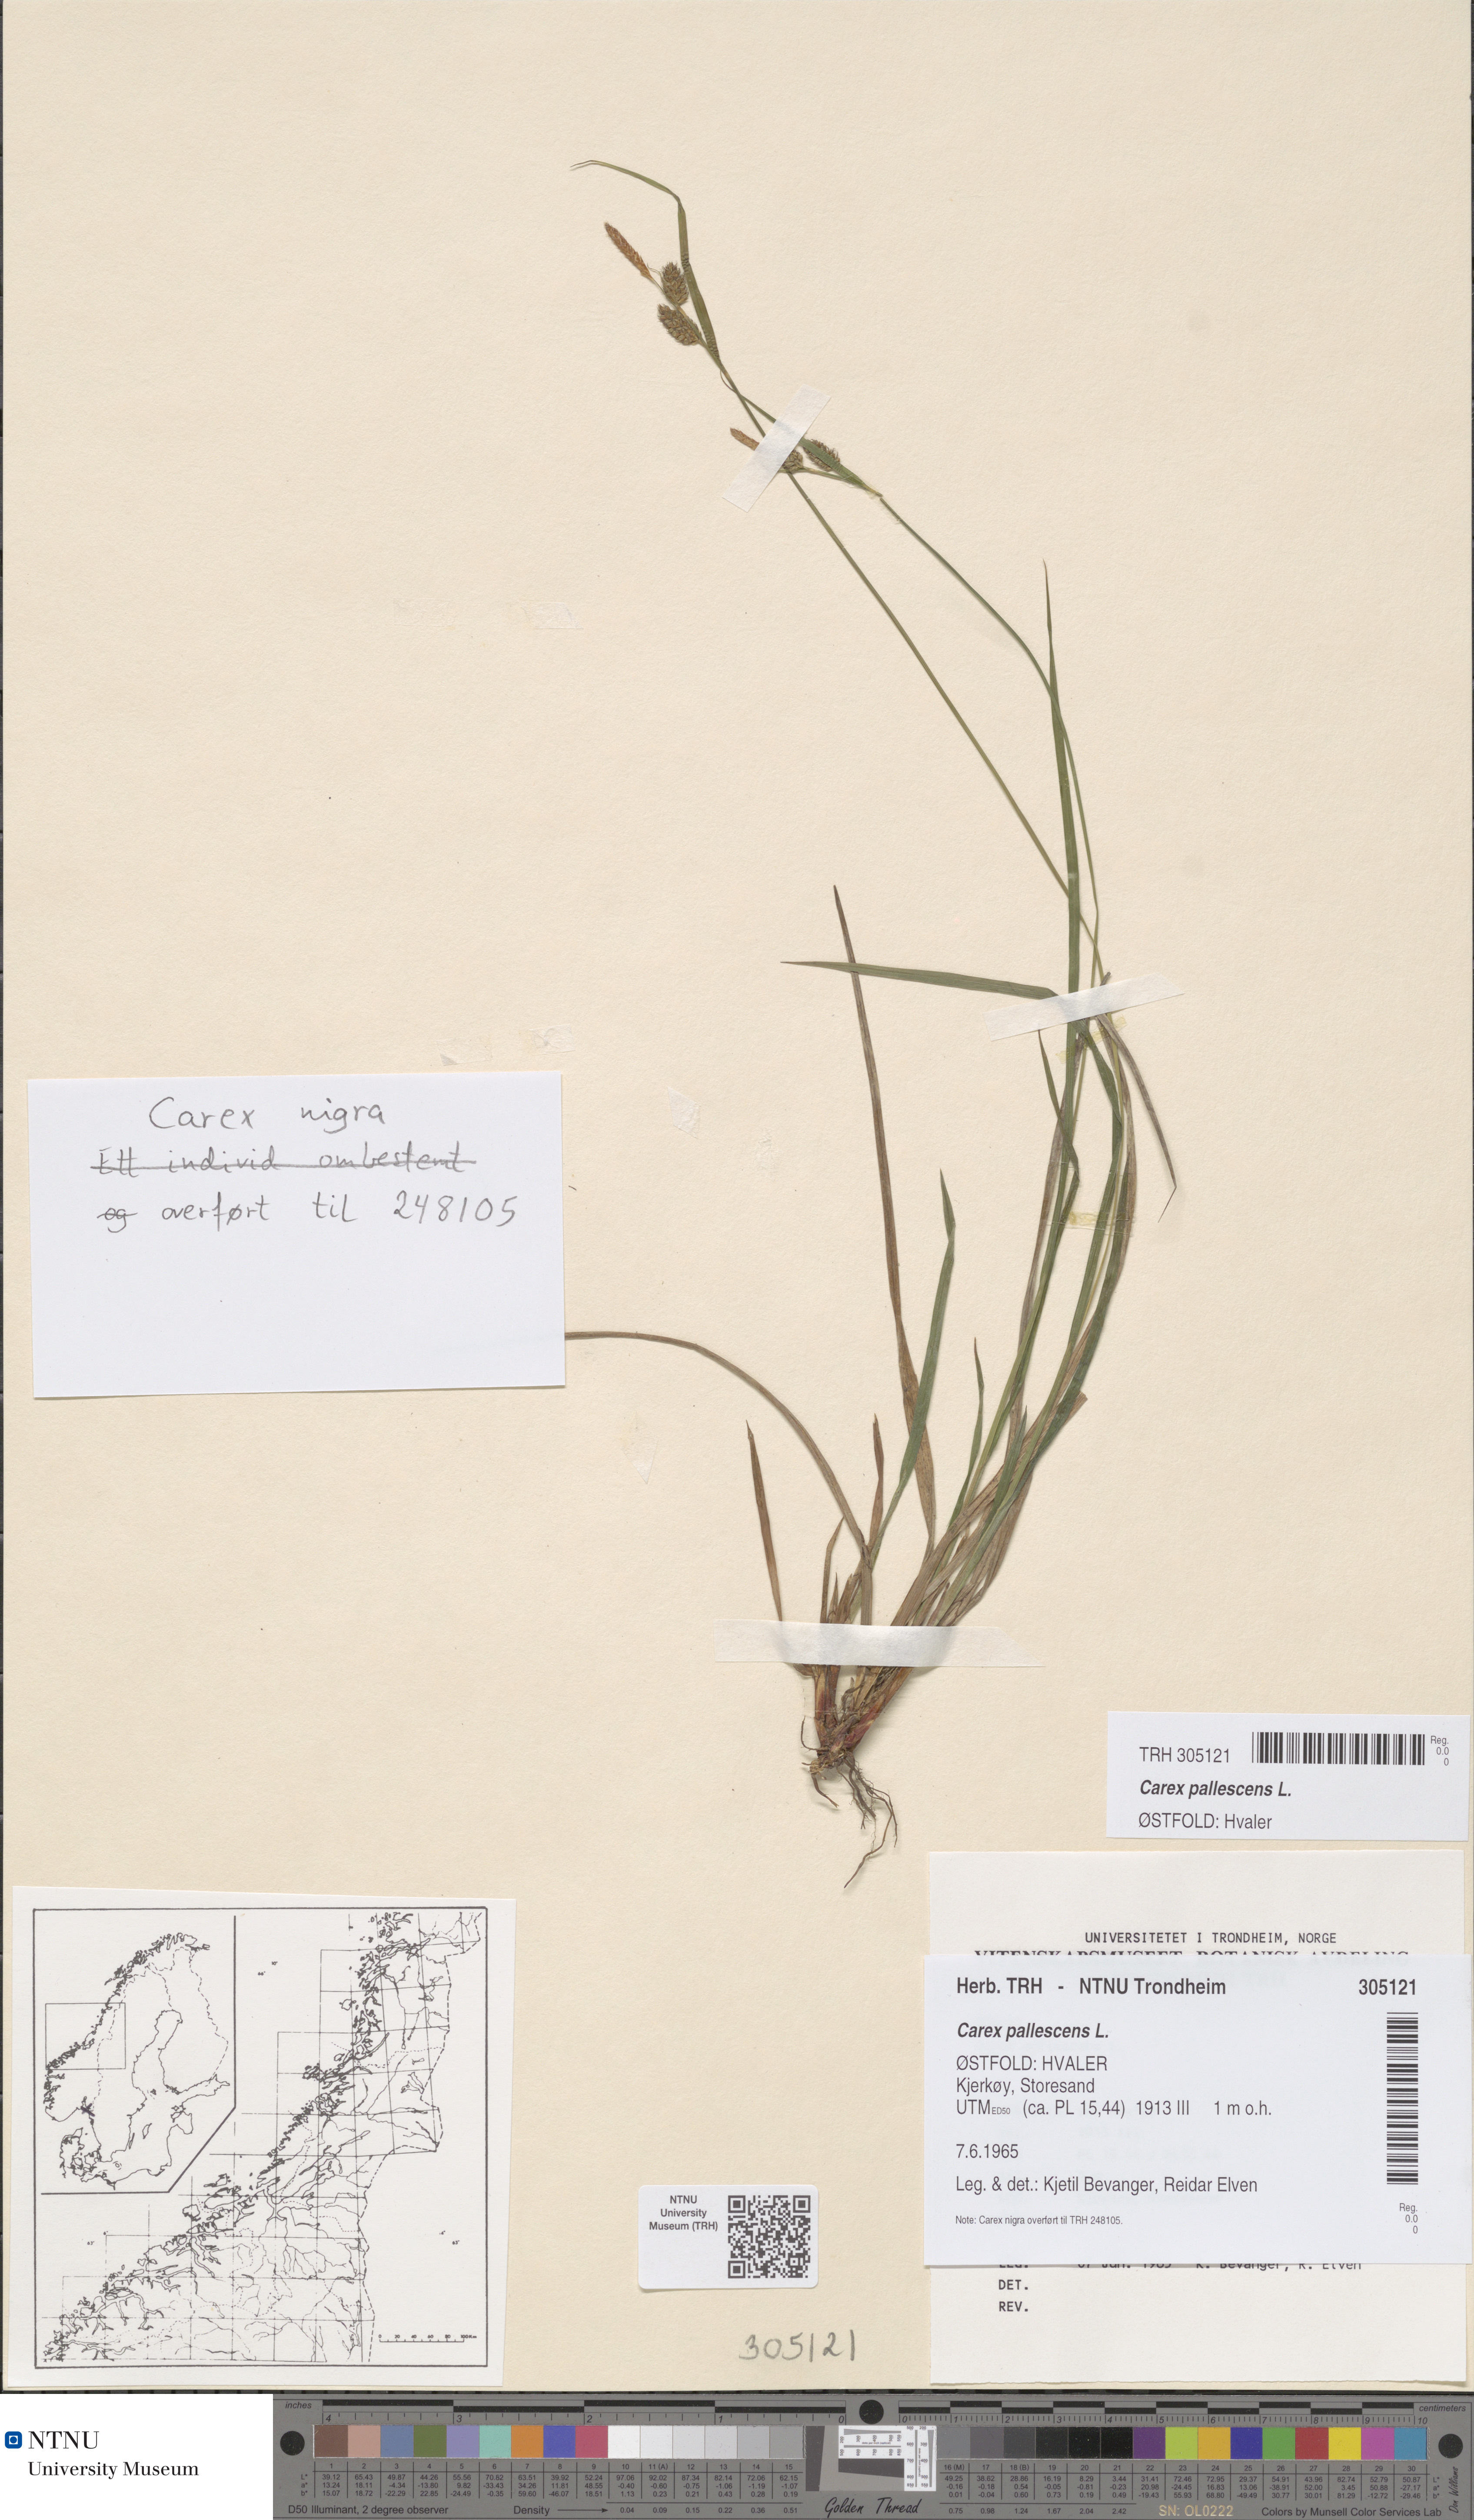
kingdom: Plantae
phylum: Tracheophyta
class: Liliopsida
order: Poales
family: Cyperaceae
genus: Carex
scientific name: Carex pallescens
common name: Pale sedge
